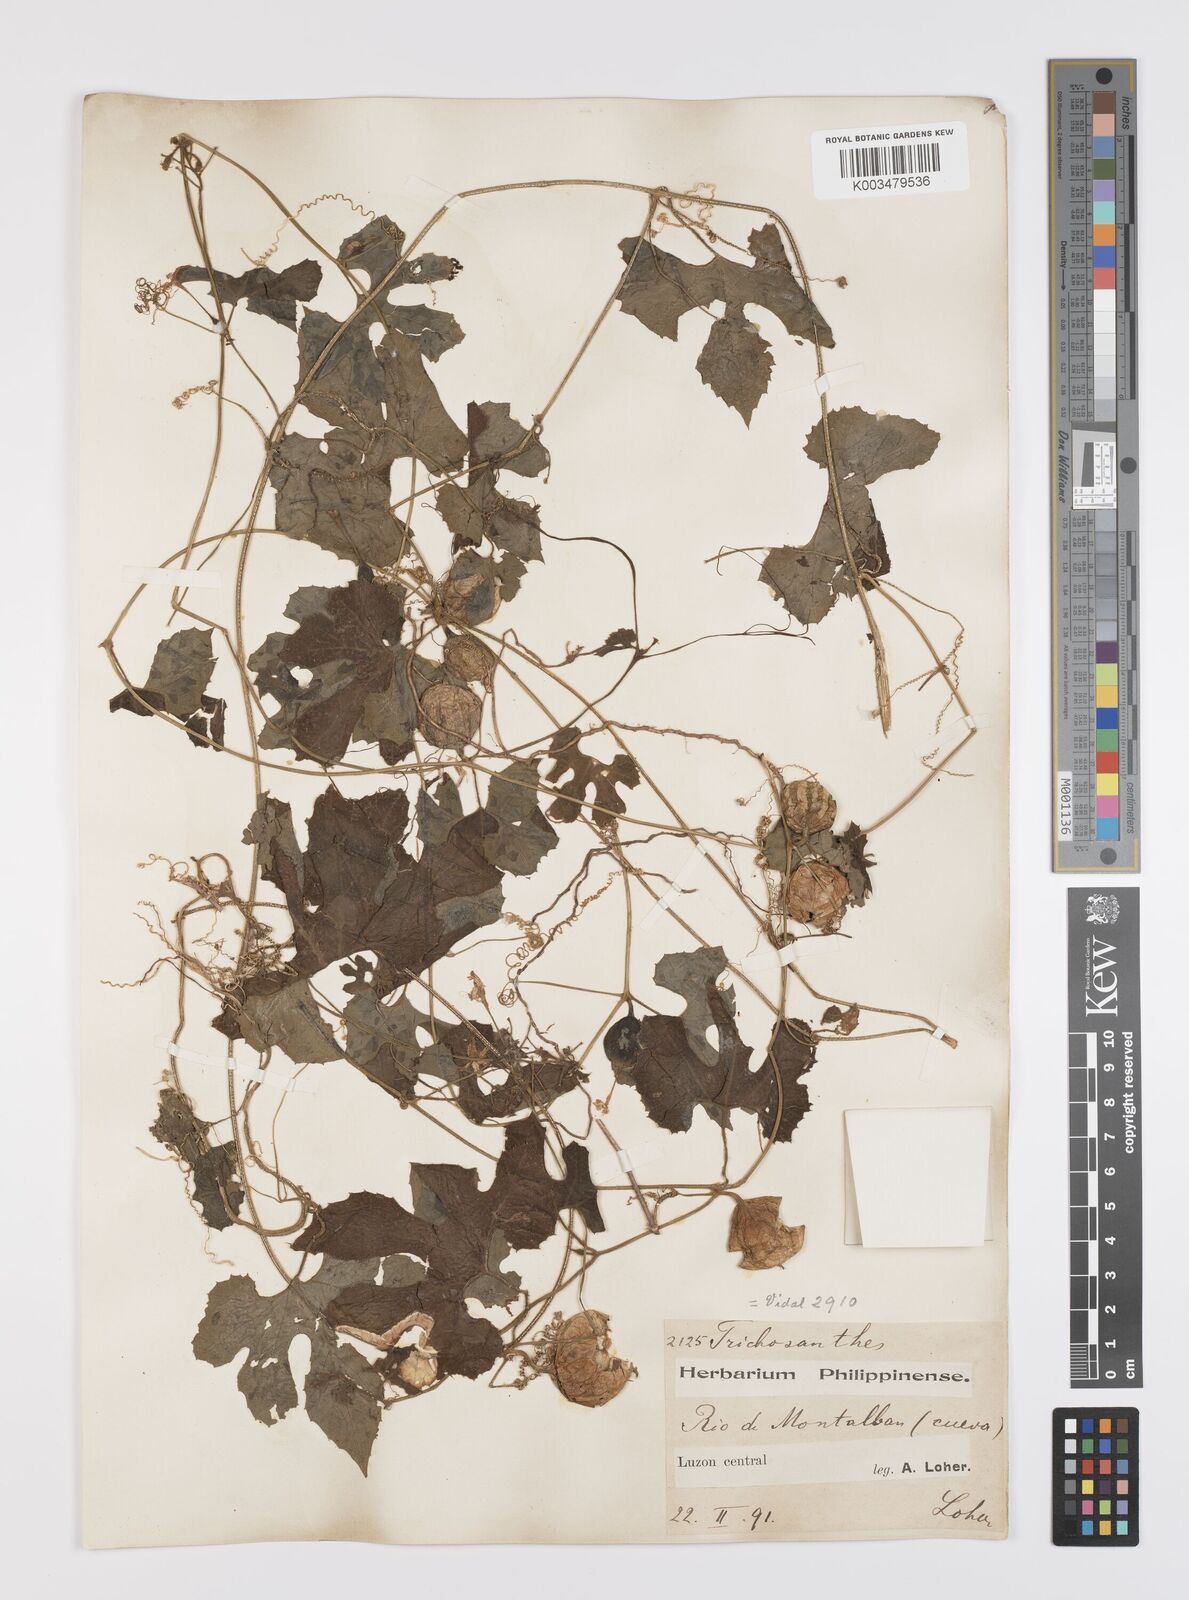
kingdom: Plantae
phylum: Tracheophyta
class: Magnoliopsida
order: Cucurbitales
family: Cucurbitaceae
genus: Trichosanthes
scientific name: Trichosanthes cucumerina
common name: Snakegourd
